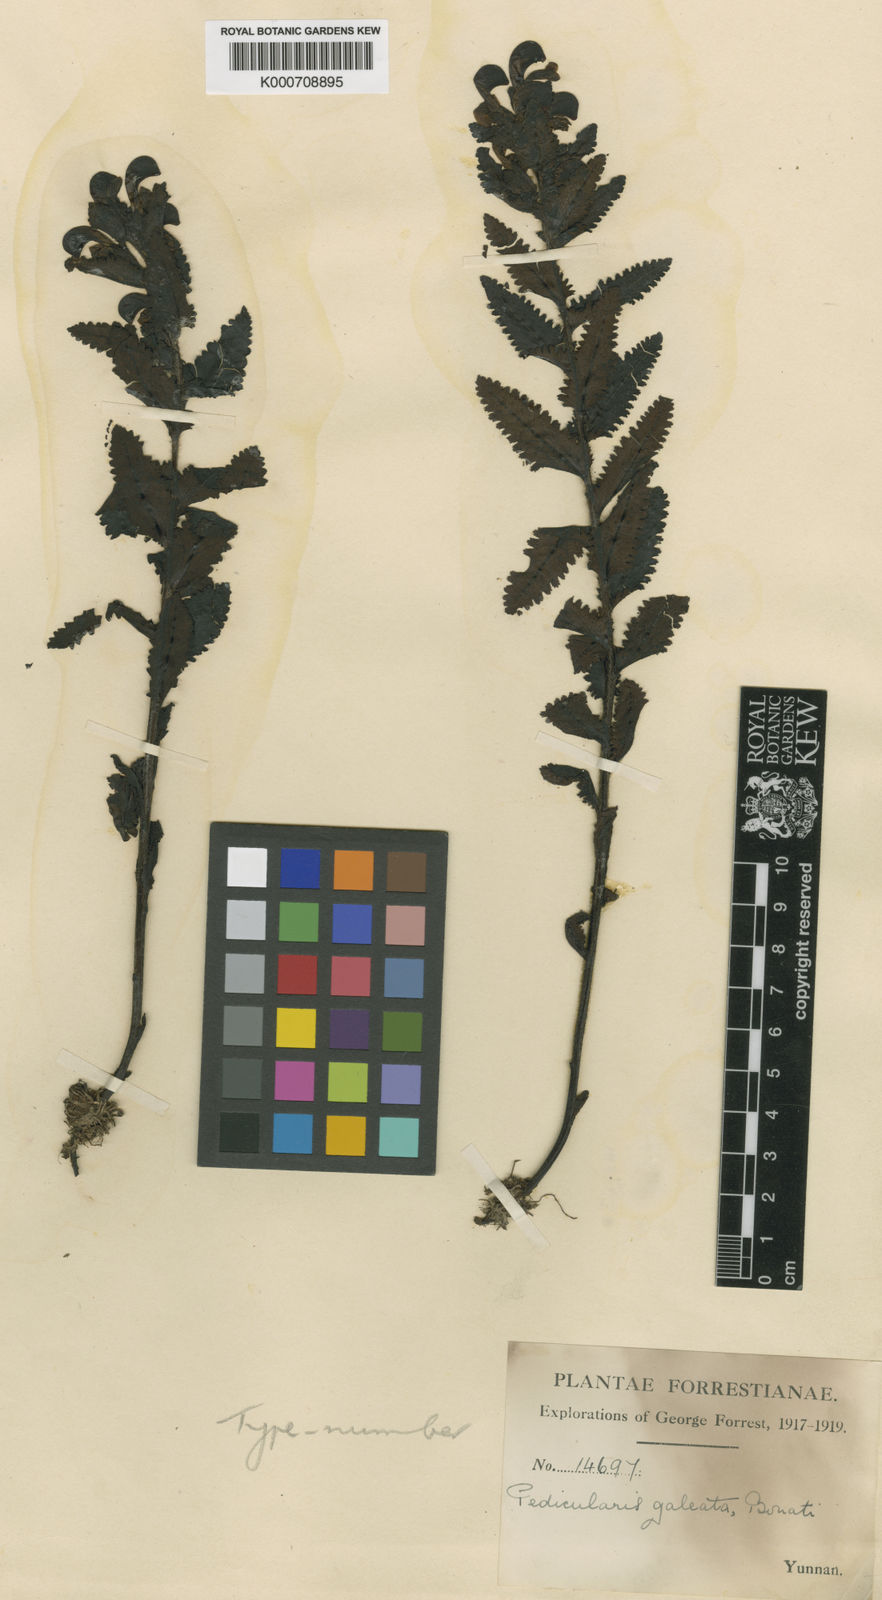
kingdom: Plantae
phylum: Tracheophyta
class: Magnoliopsida
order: Lamiales
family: Orobanchaceae
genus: Pedicularis
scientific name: Pedicularis galeata
